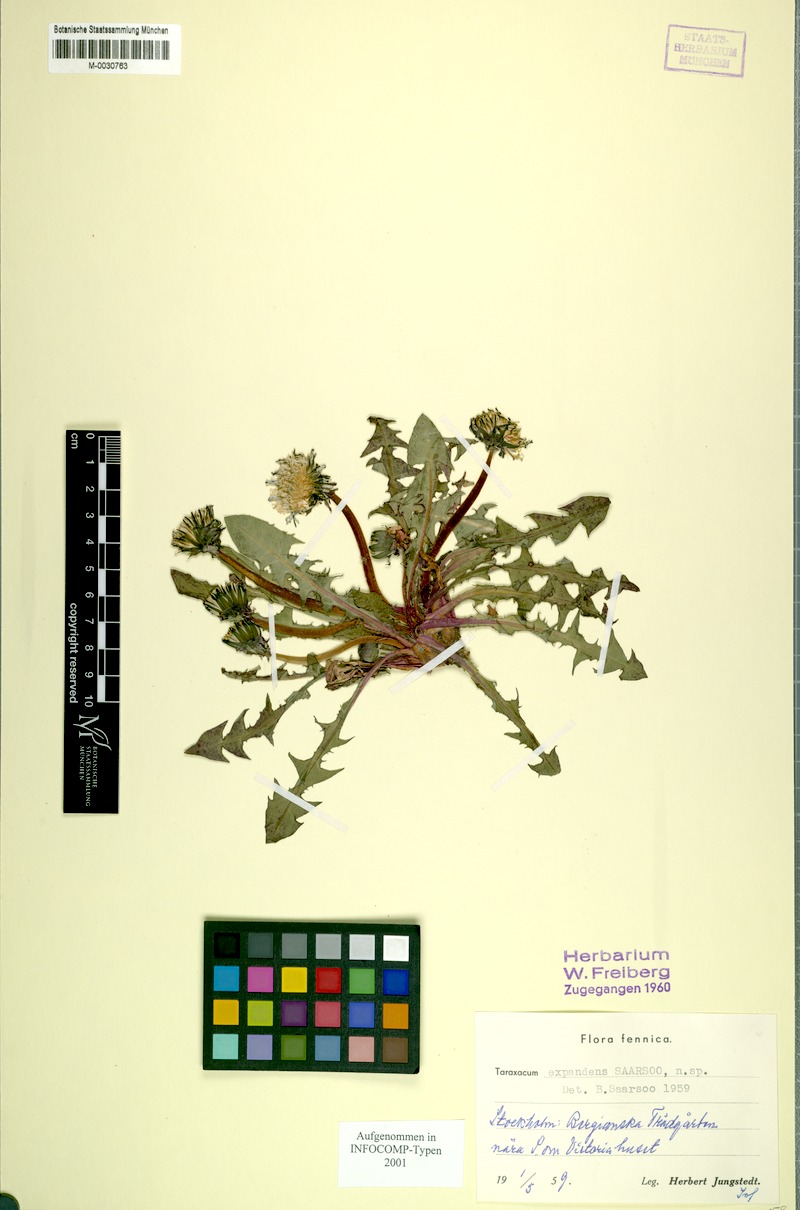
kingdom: Plantae
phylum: Tracheophyta
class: Magnoliopsida
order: Asterales
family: Asteraceae
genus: Taraxacum
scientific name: Taraxacum expandens
